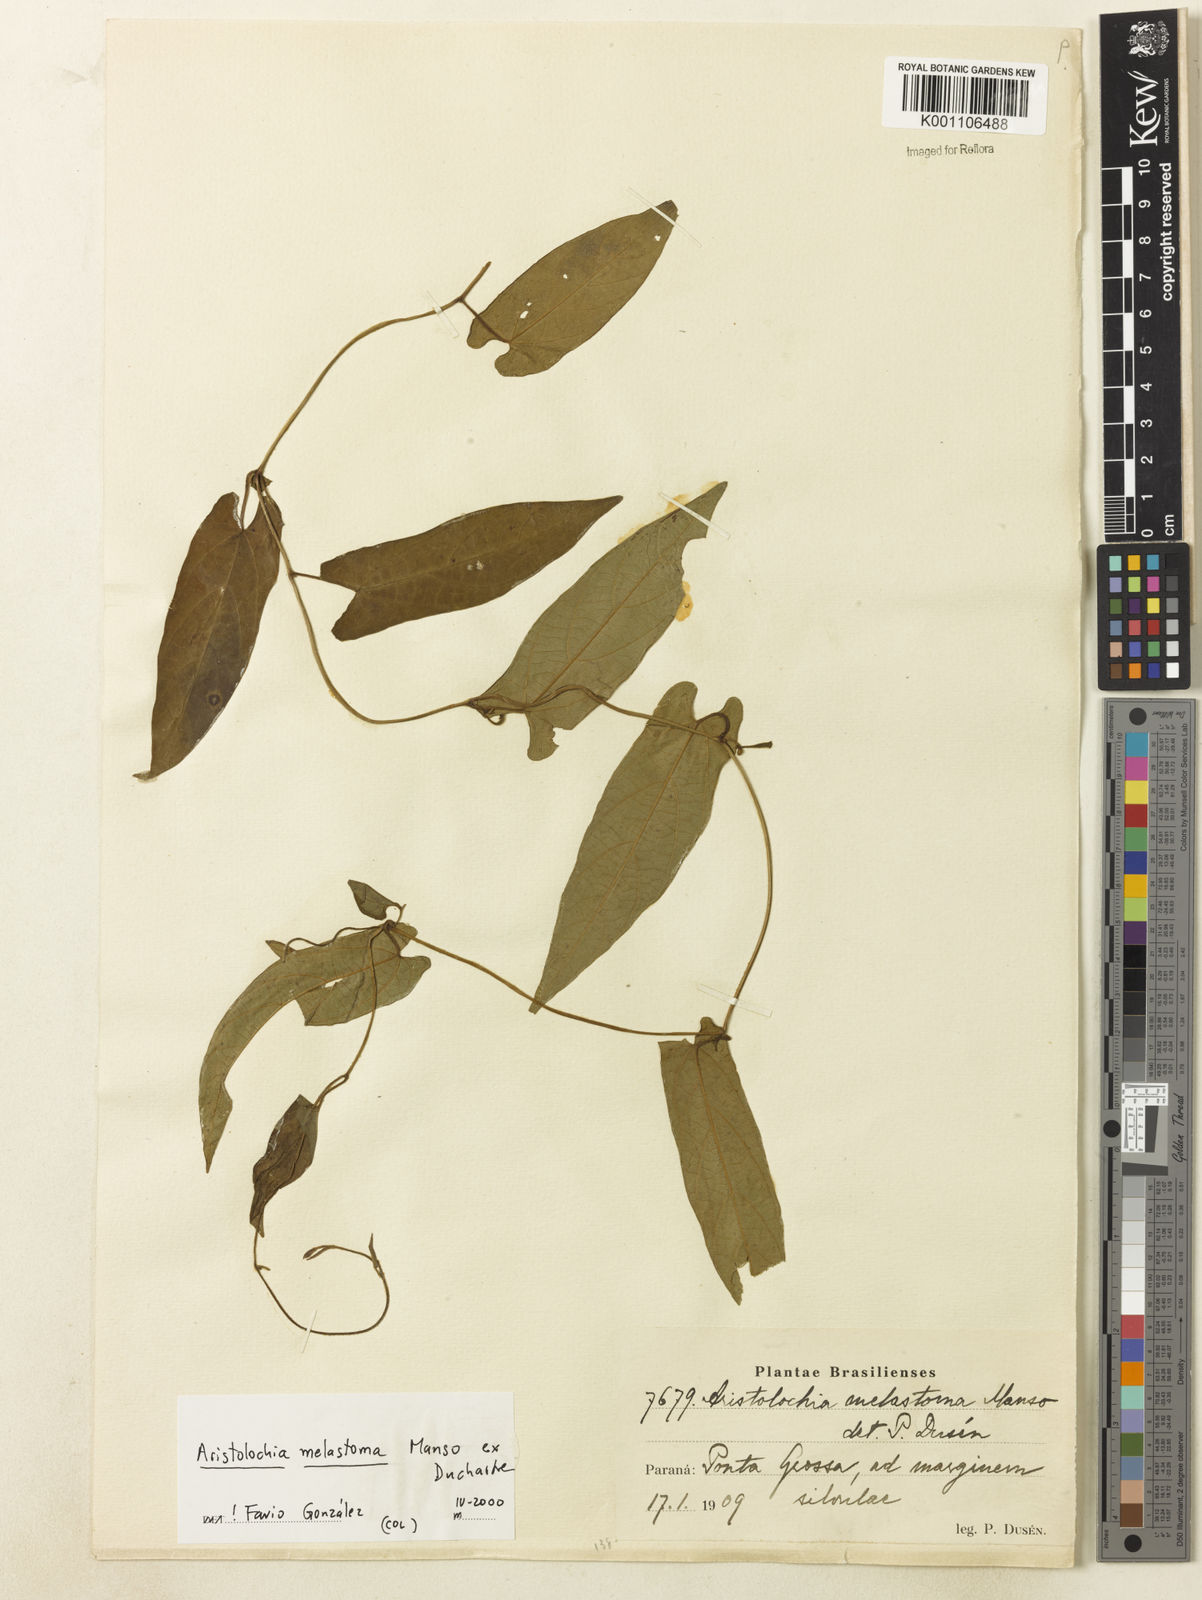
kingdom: Plantae
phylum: Tracheophyta
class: Magnoliopsida
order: Piperales
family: Aristolochiaceae
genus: Aristolochia
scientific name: Aristolochia melastoma
